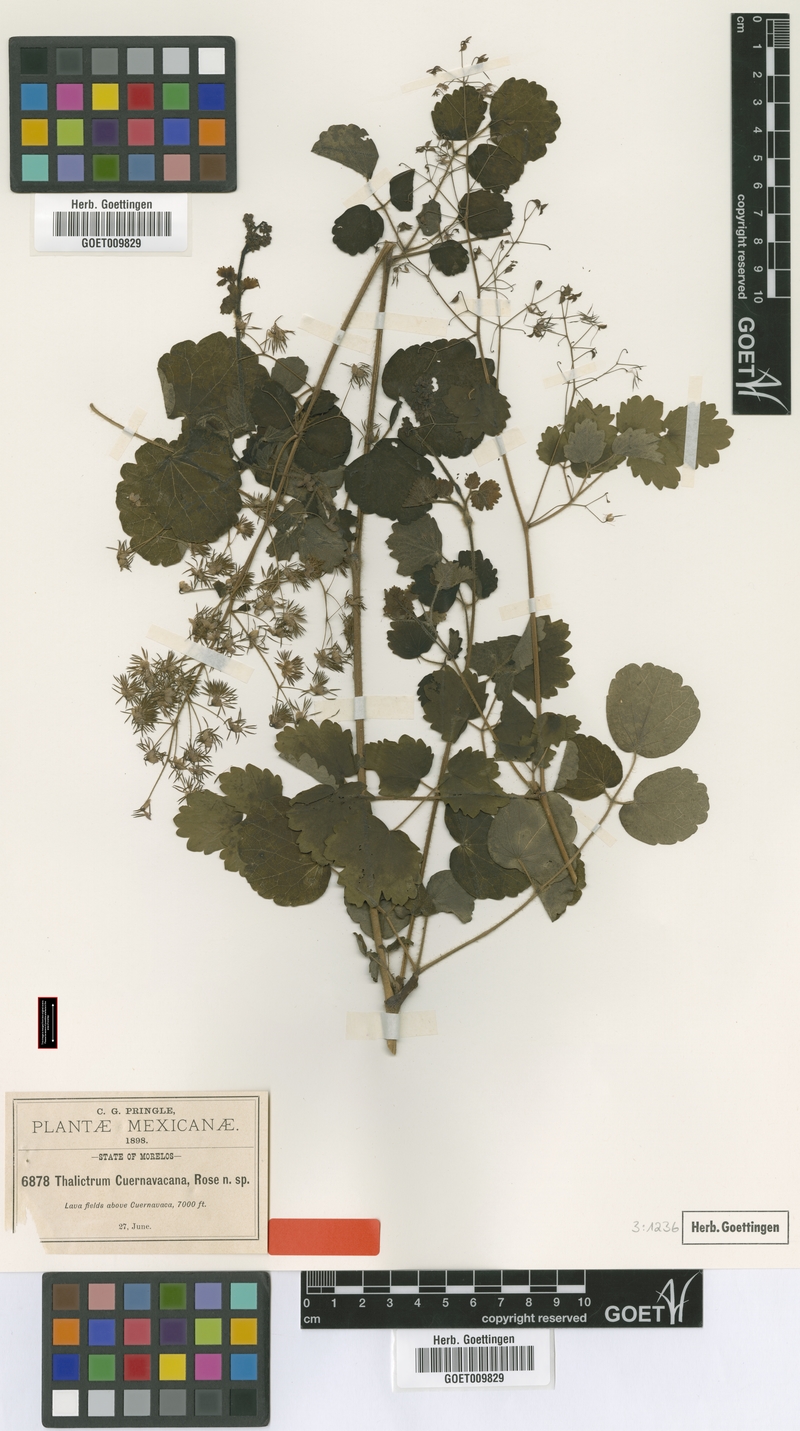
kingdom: Plantae
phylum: Tracheophyta
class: Magnoliopsida
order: Ranunculales
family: Ranunculaceae
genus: Thalictrum
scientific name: Thalictrum cuernavacanum
